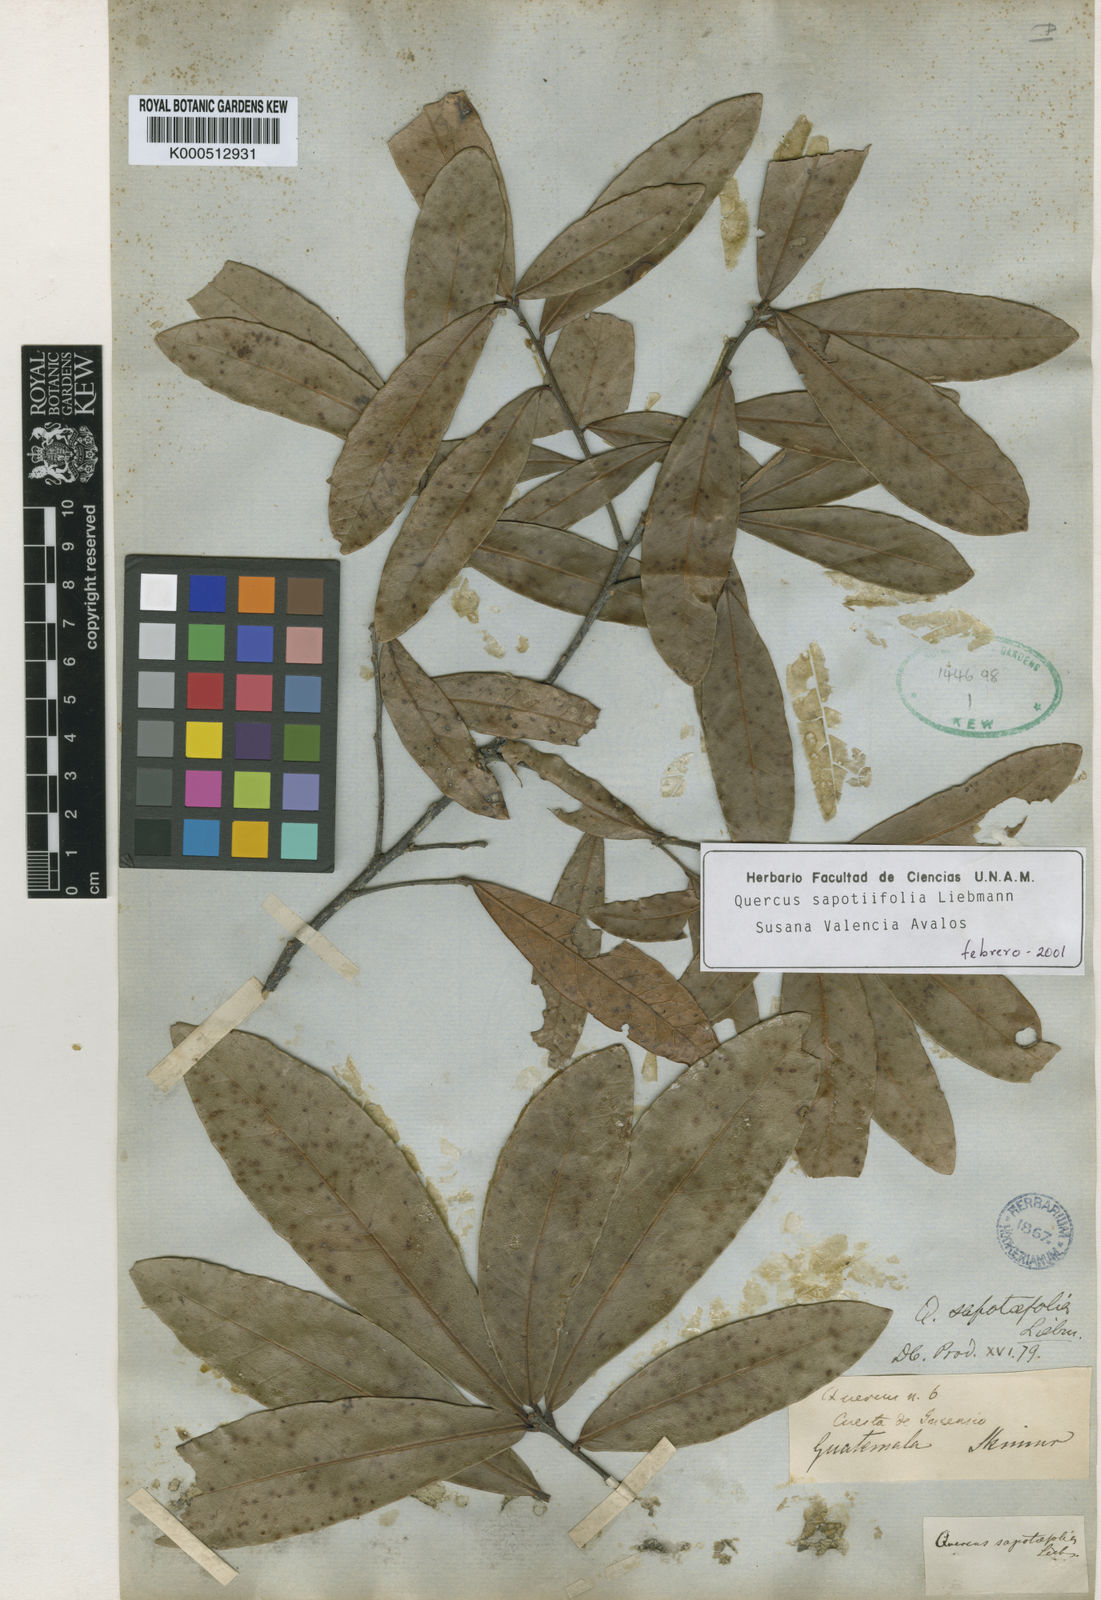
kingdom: Plantae
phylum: Tracheophyta
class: Magnoliopsida
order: Fagales
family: Fagaceae
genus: Quercus
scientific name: Quercus sapotifolia
